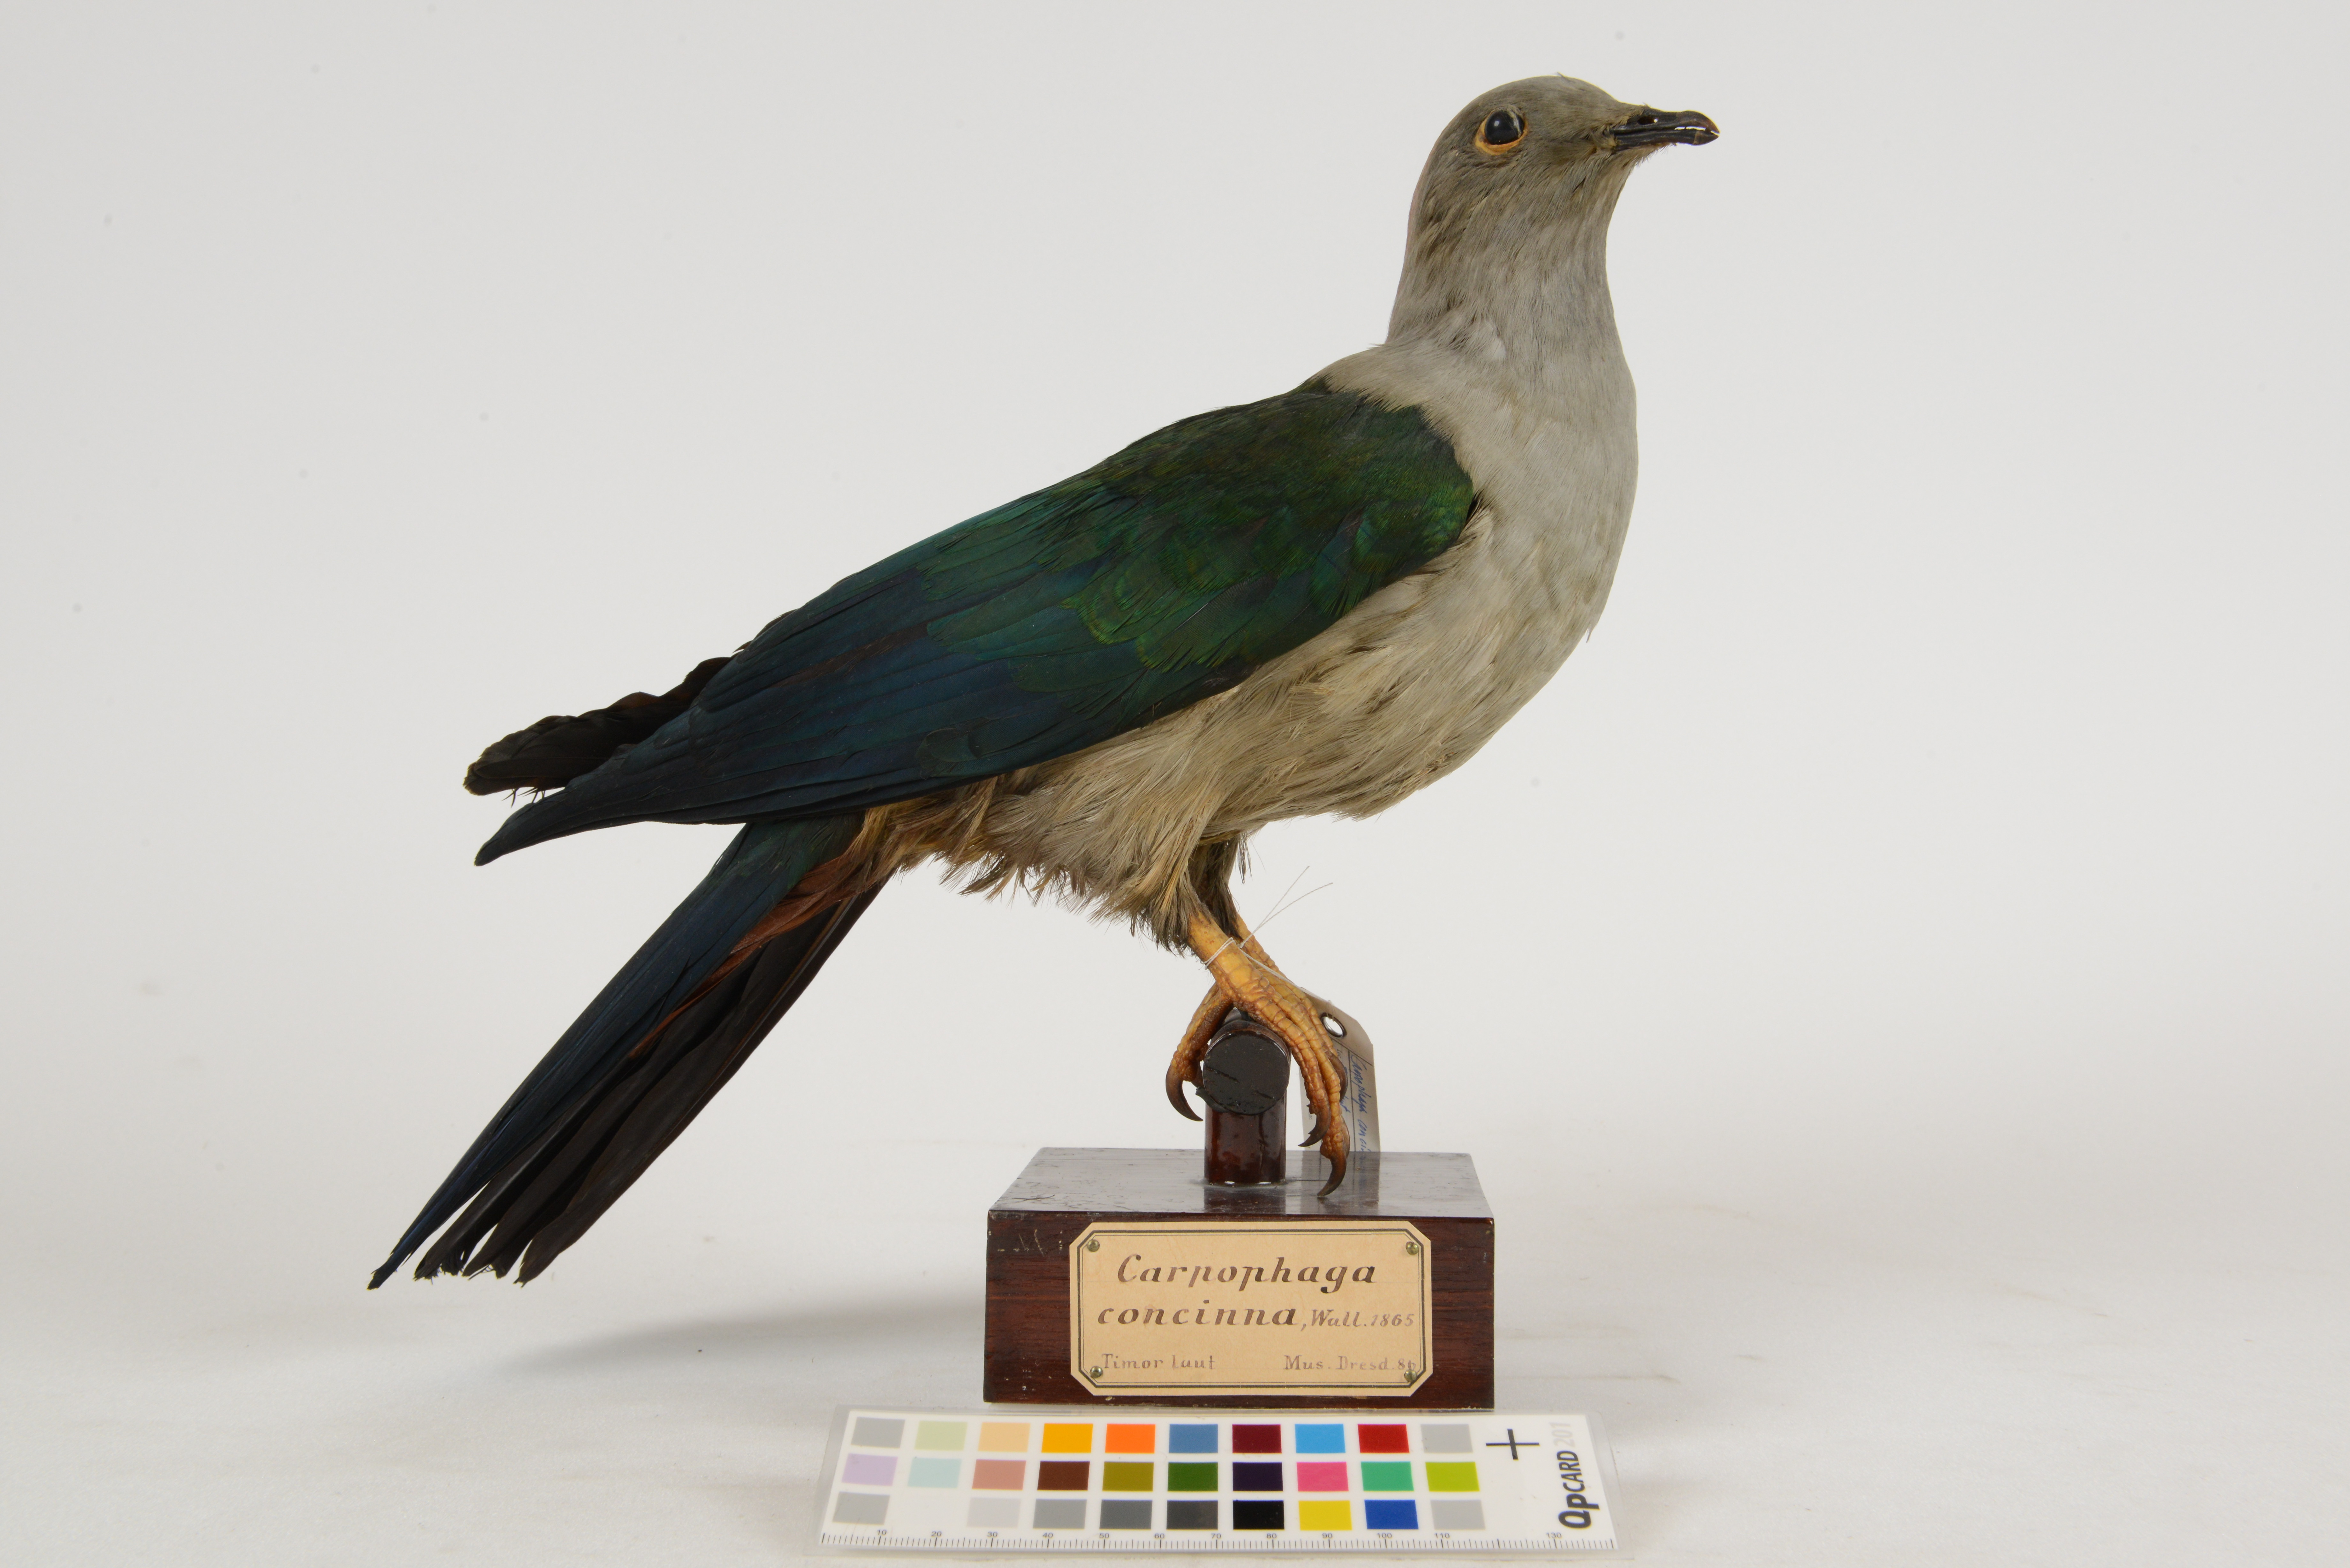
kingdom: Animalia
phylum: Chordata
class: Aves
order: Columbiformes
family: Columbidae
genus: Ducula
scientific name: Ducula concinna
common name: Elegant imperial pigeon
